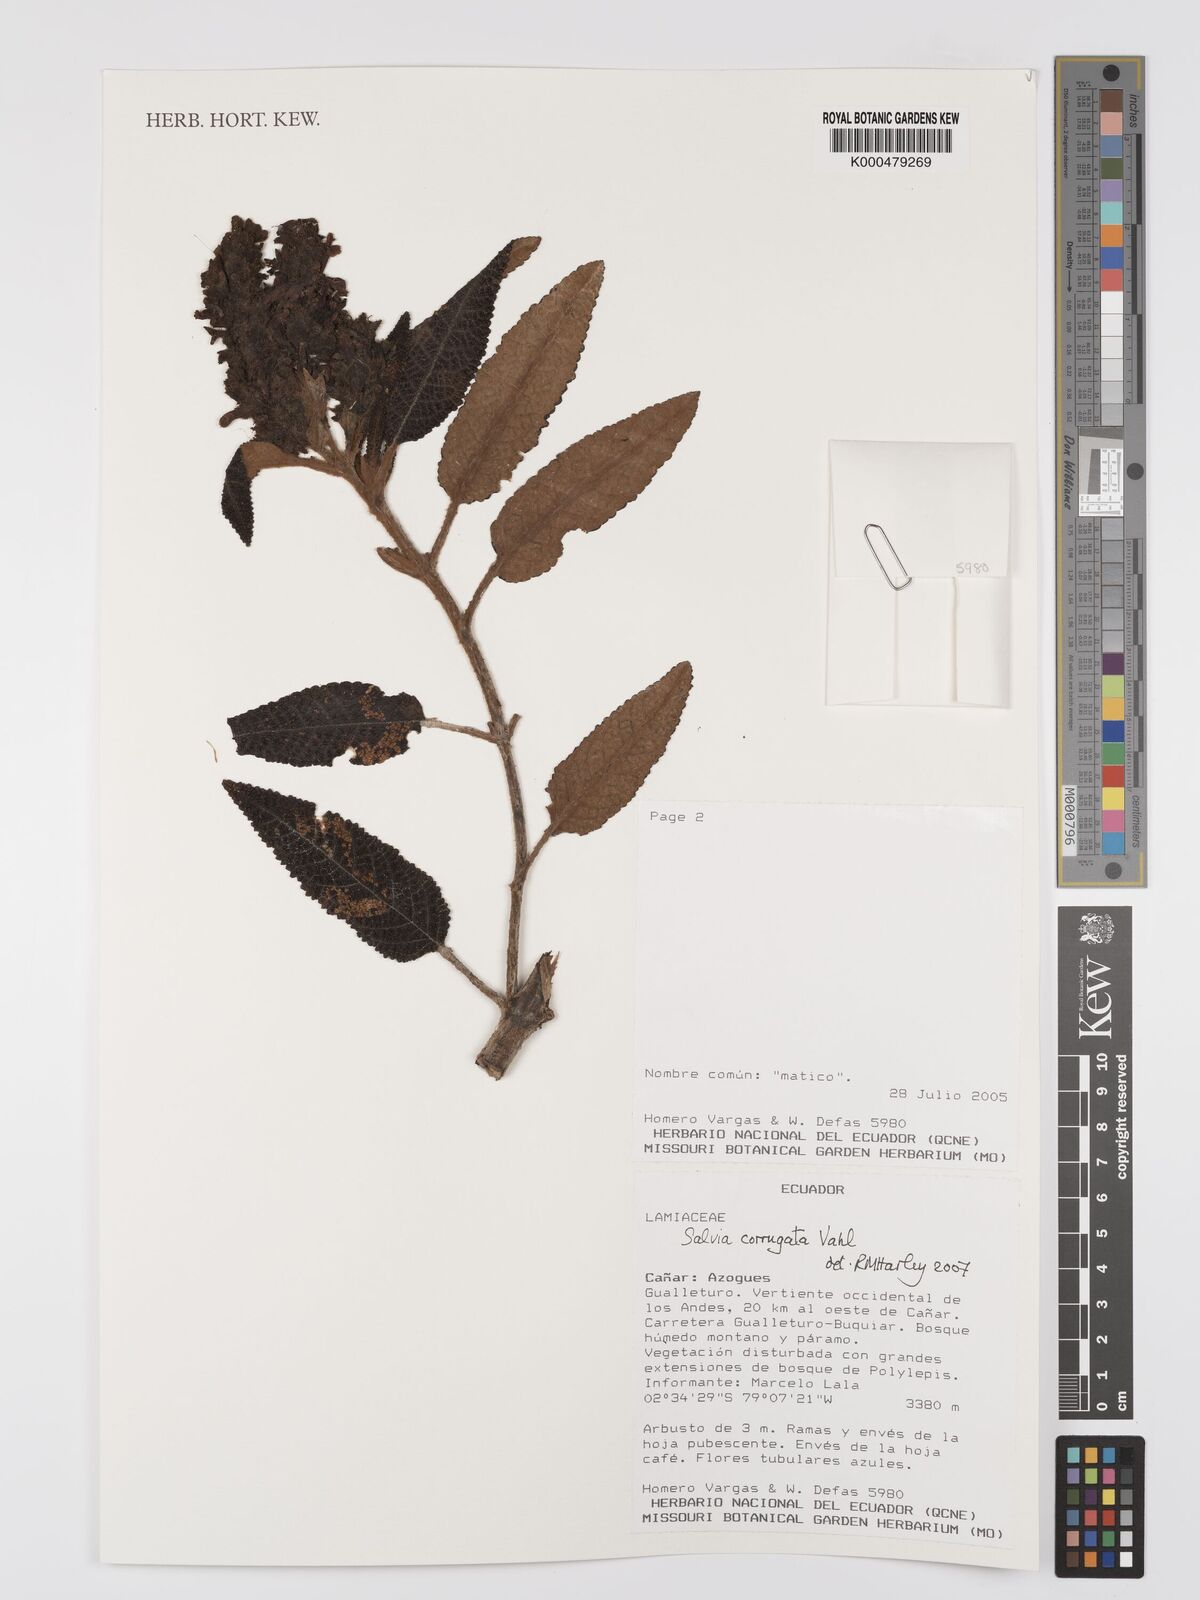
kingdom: Plantae
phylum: Tracheophyta
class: Magnoliopsida
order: Lamiales
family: Lamiaceae
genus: Salvia
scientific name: Salvia corrugata
